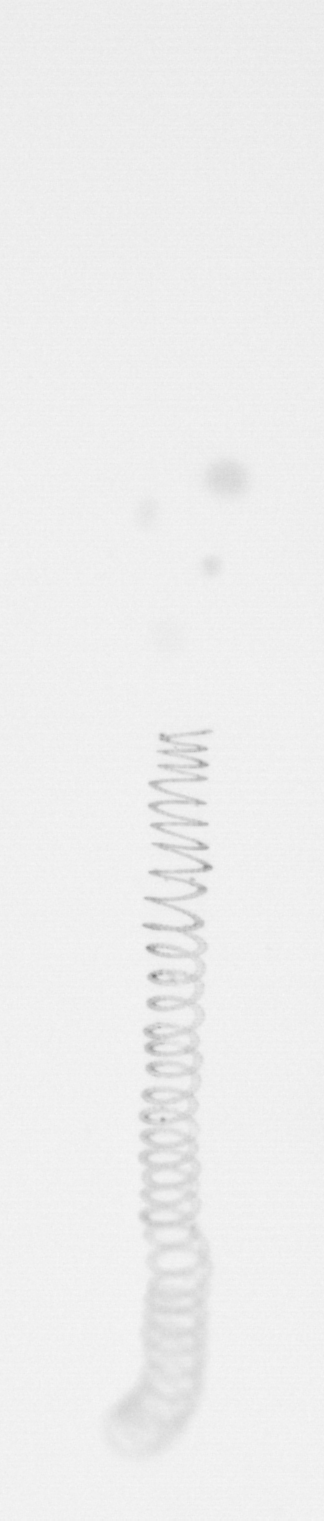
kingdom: Chromista
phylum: Ochrophyta
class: Bacillariophyceae
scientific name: Bacillariophyceae
